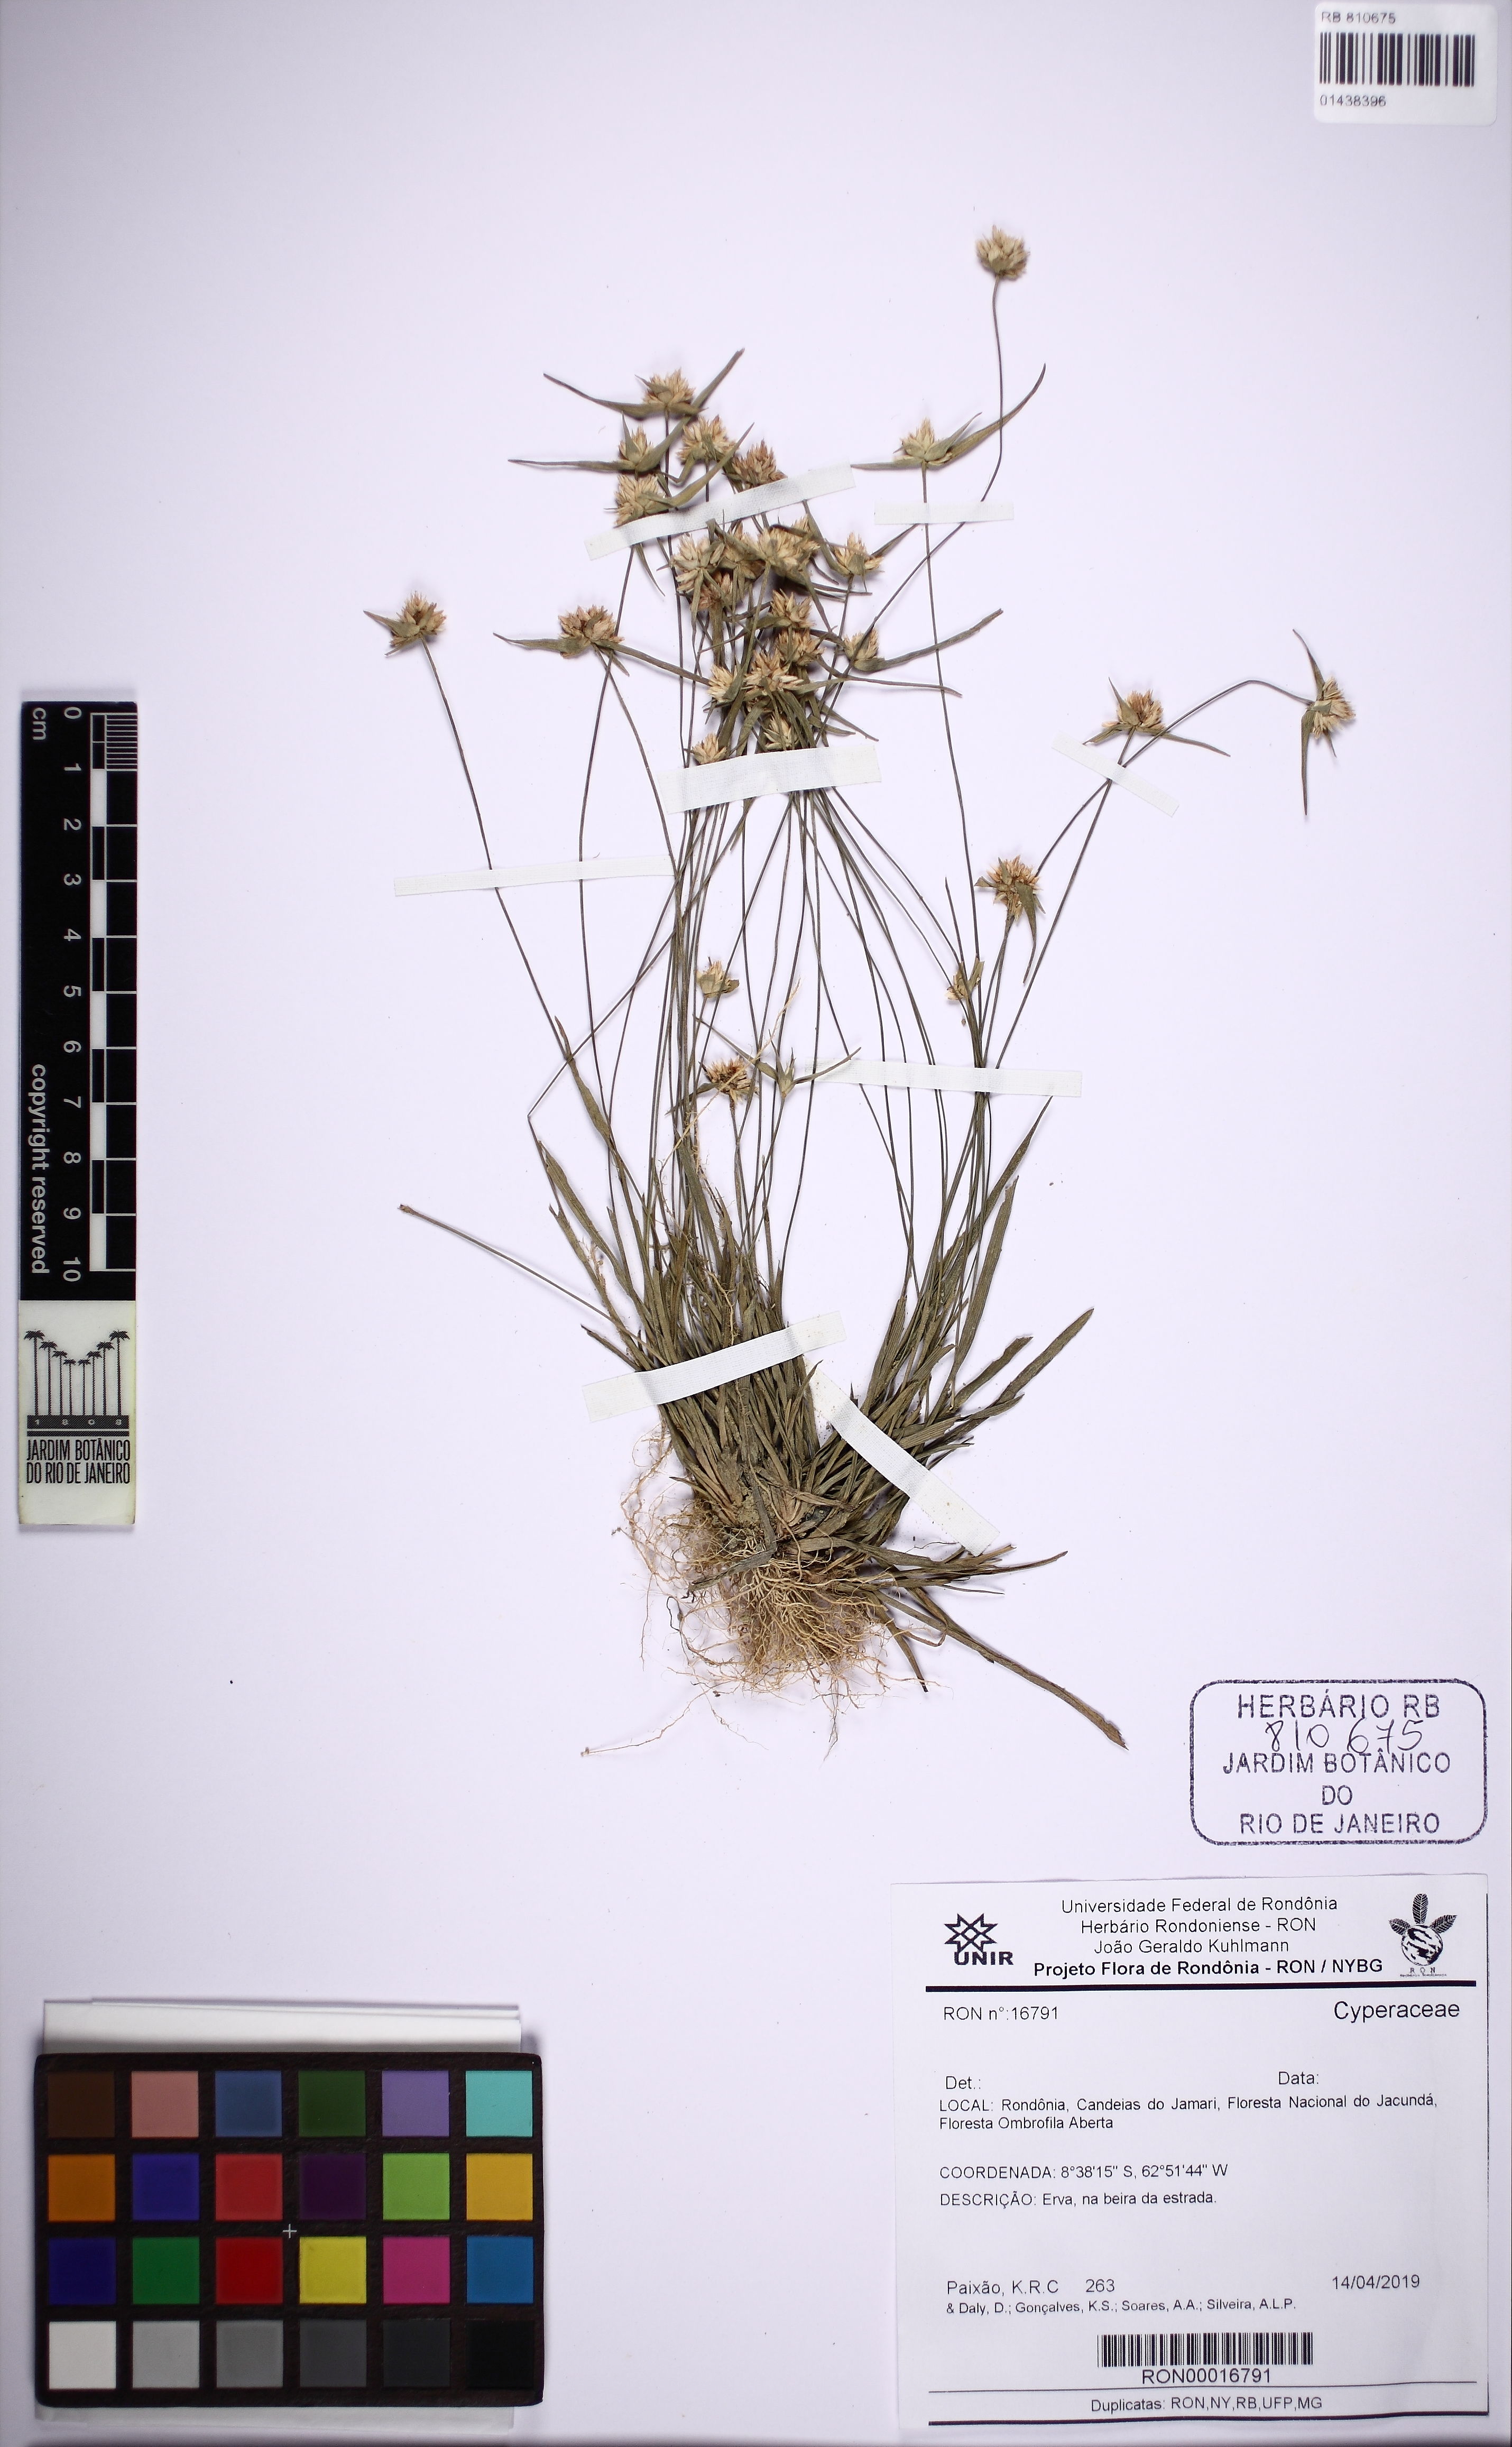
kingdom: Plantae
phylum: Tracheophyta
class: Liliopsida
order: Poales
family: Cyperaceae
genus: Rhynchospora
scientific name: Rhynchospora
